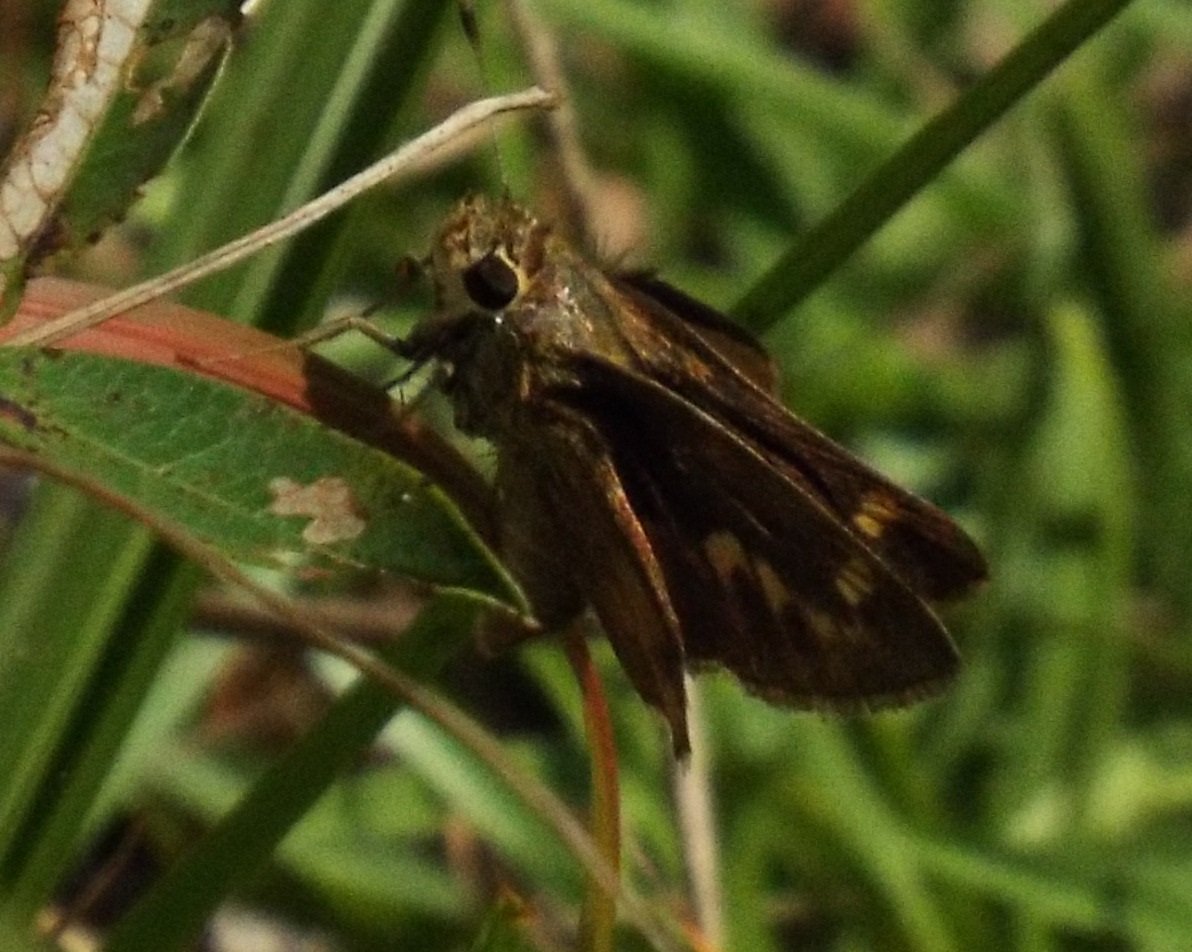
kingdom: Animalia
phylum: Arthropoda
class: Insecta
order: Lepidoptera
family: Hesperiidae
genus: Lon
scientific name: Lon zabulon
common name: Zabulon Skipper
